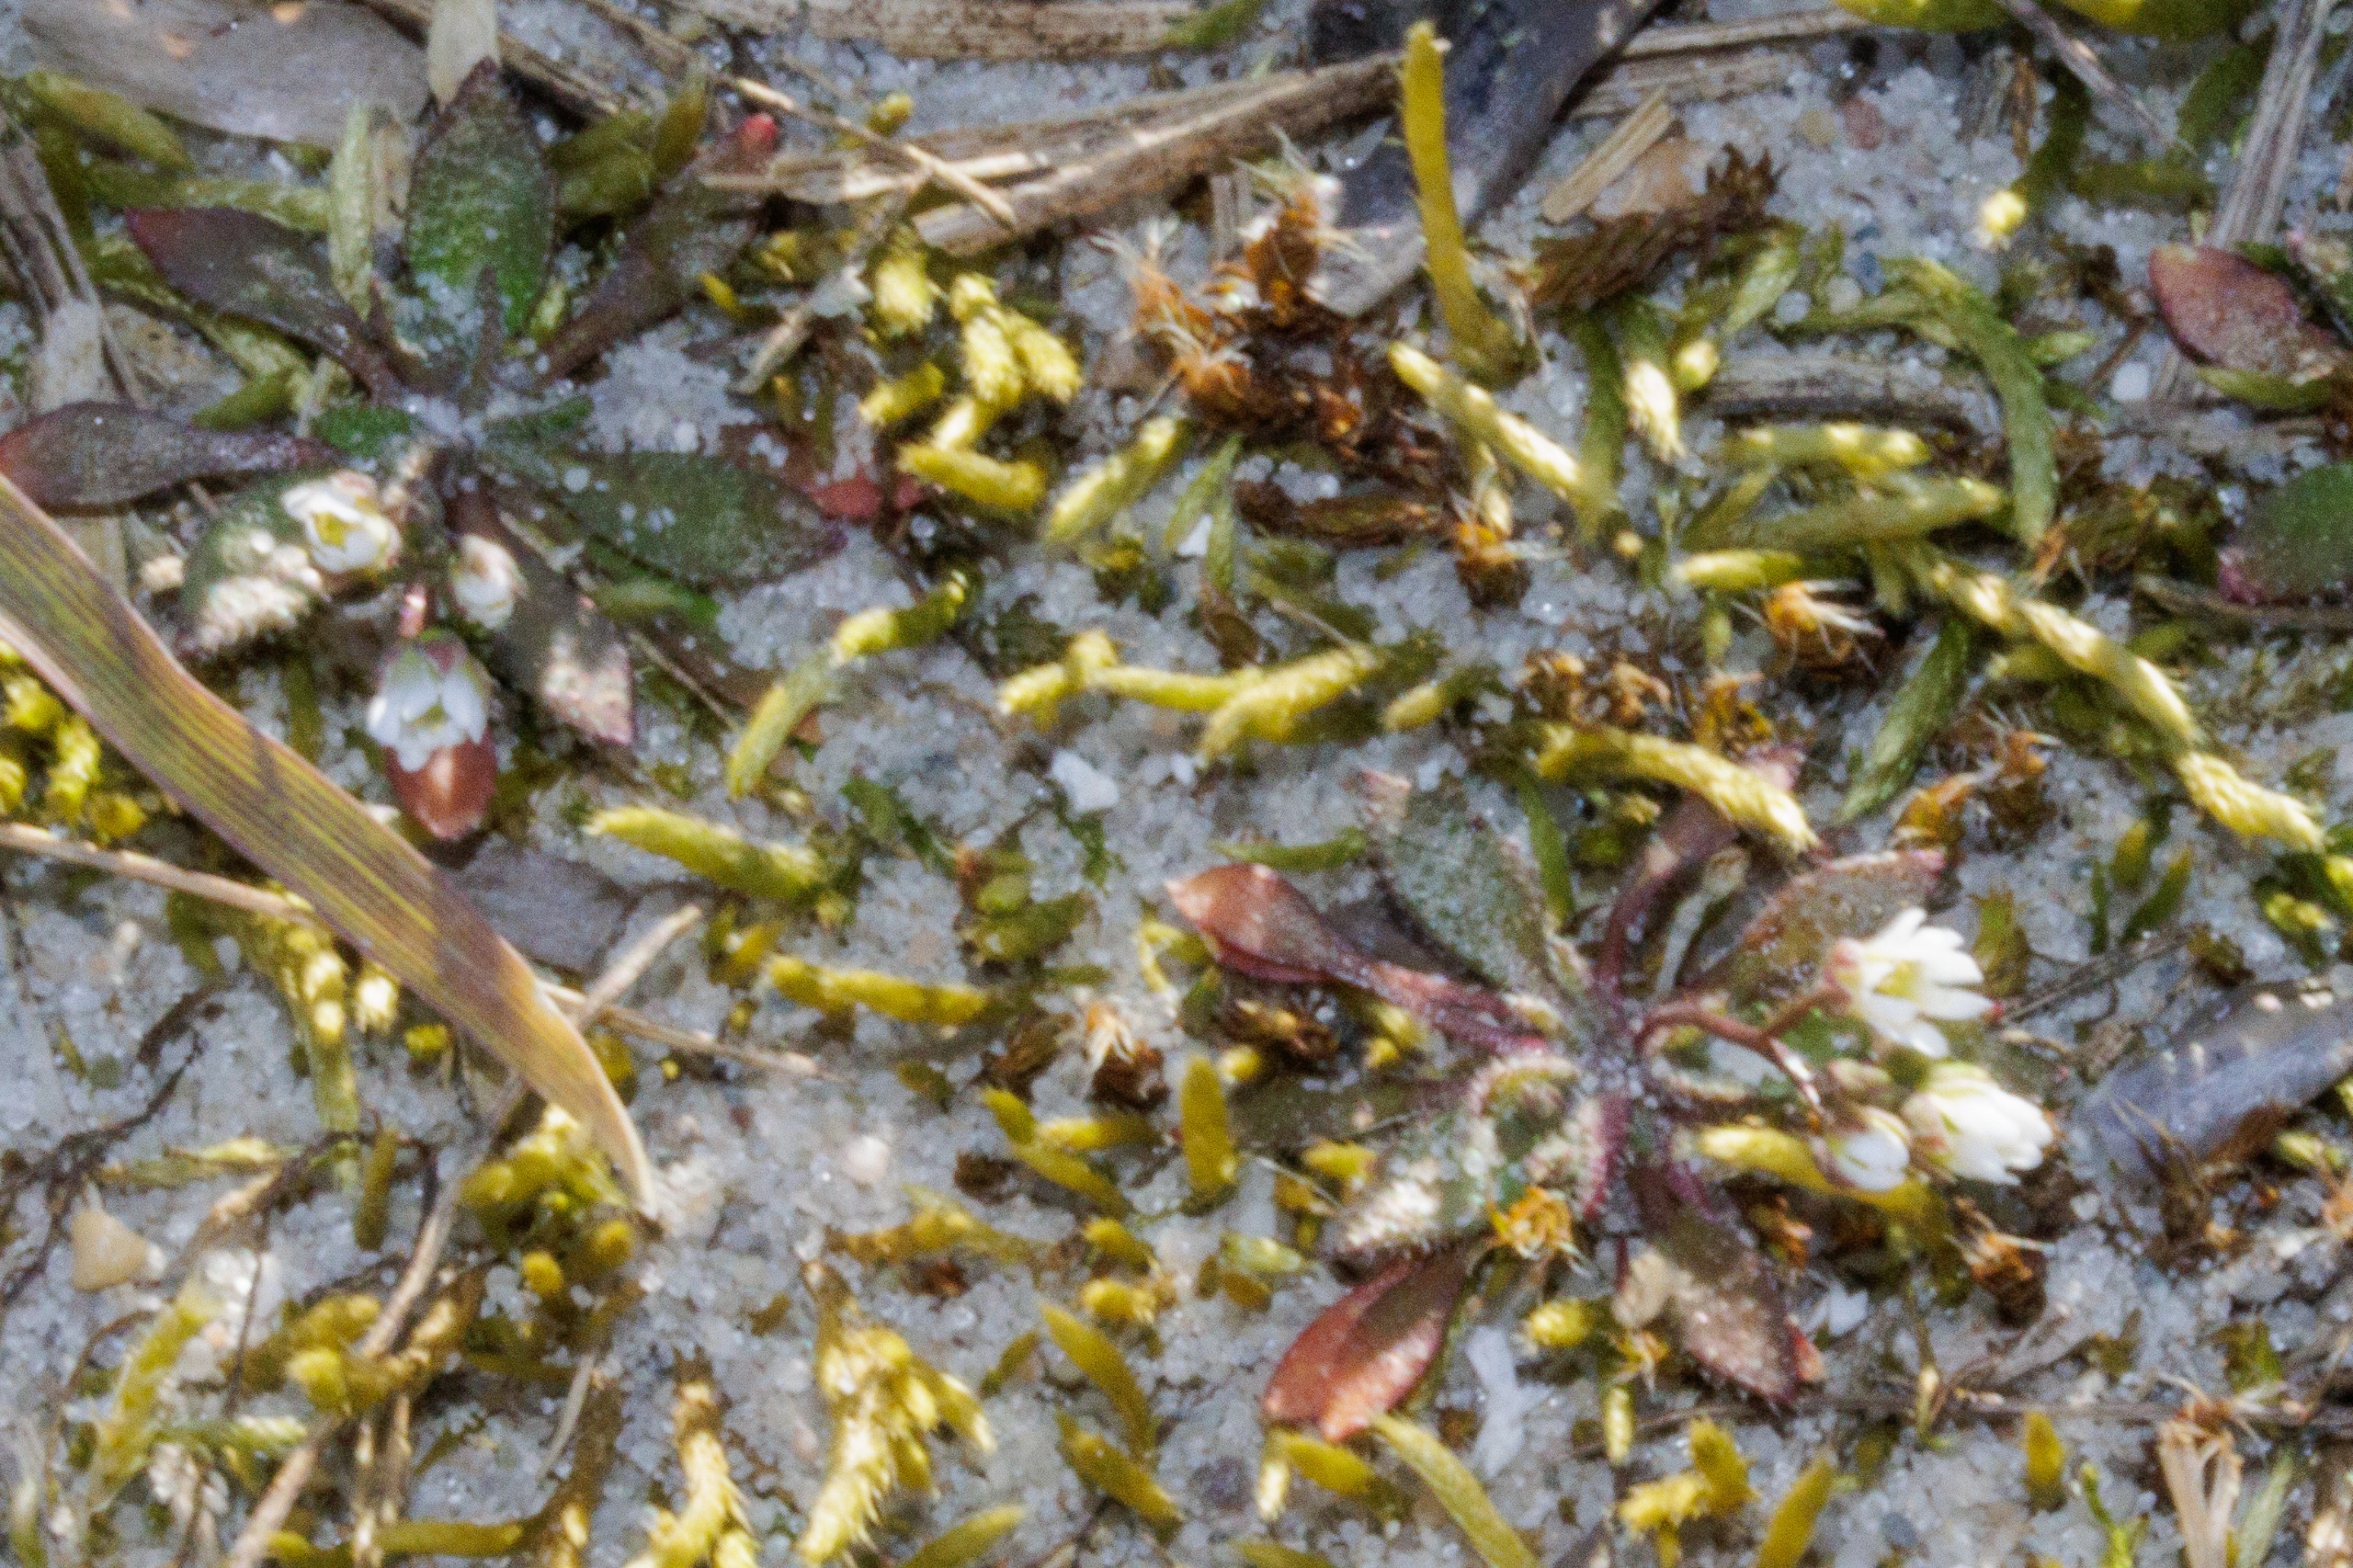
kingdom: Plantae
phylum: Tracheophyta
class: Magnoliopsida
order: Brassicales
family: Brassicaceae
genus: Draba
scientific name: Draba verna
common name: Vår-gæslingeblomst
